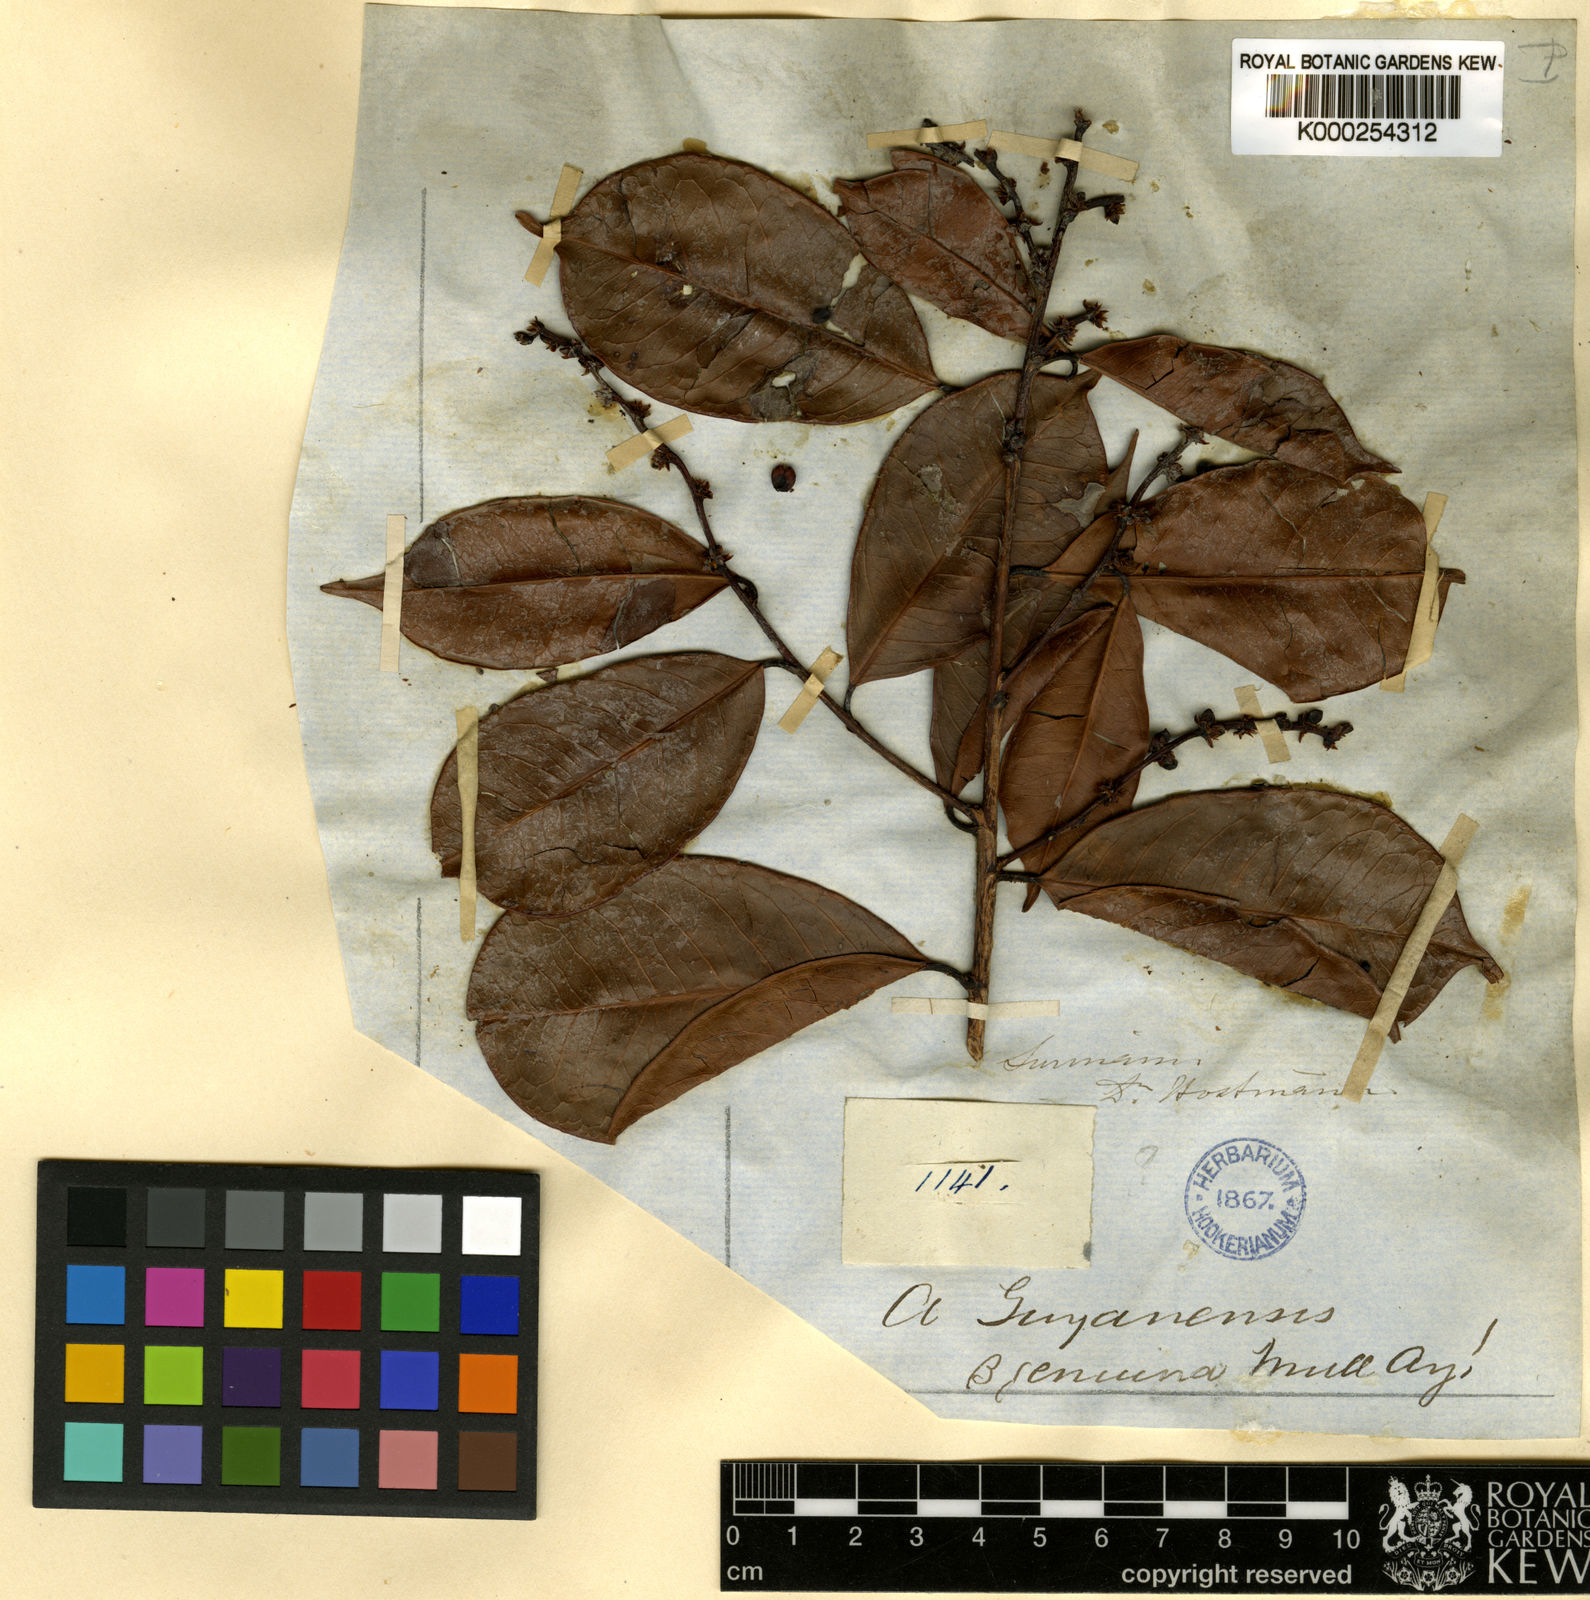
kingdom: Plantae
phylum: Tracheophyta
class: Magnoliopsida
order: Malpighiales
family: Phyllanthaceae
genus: Amanoa
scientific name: Amanoa guianensis
